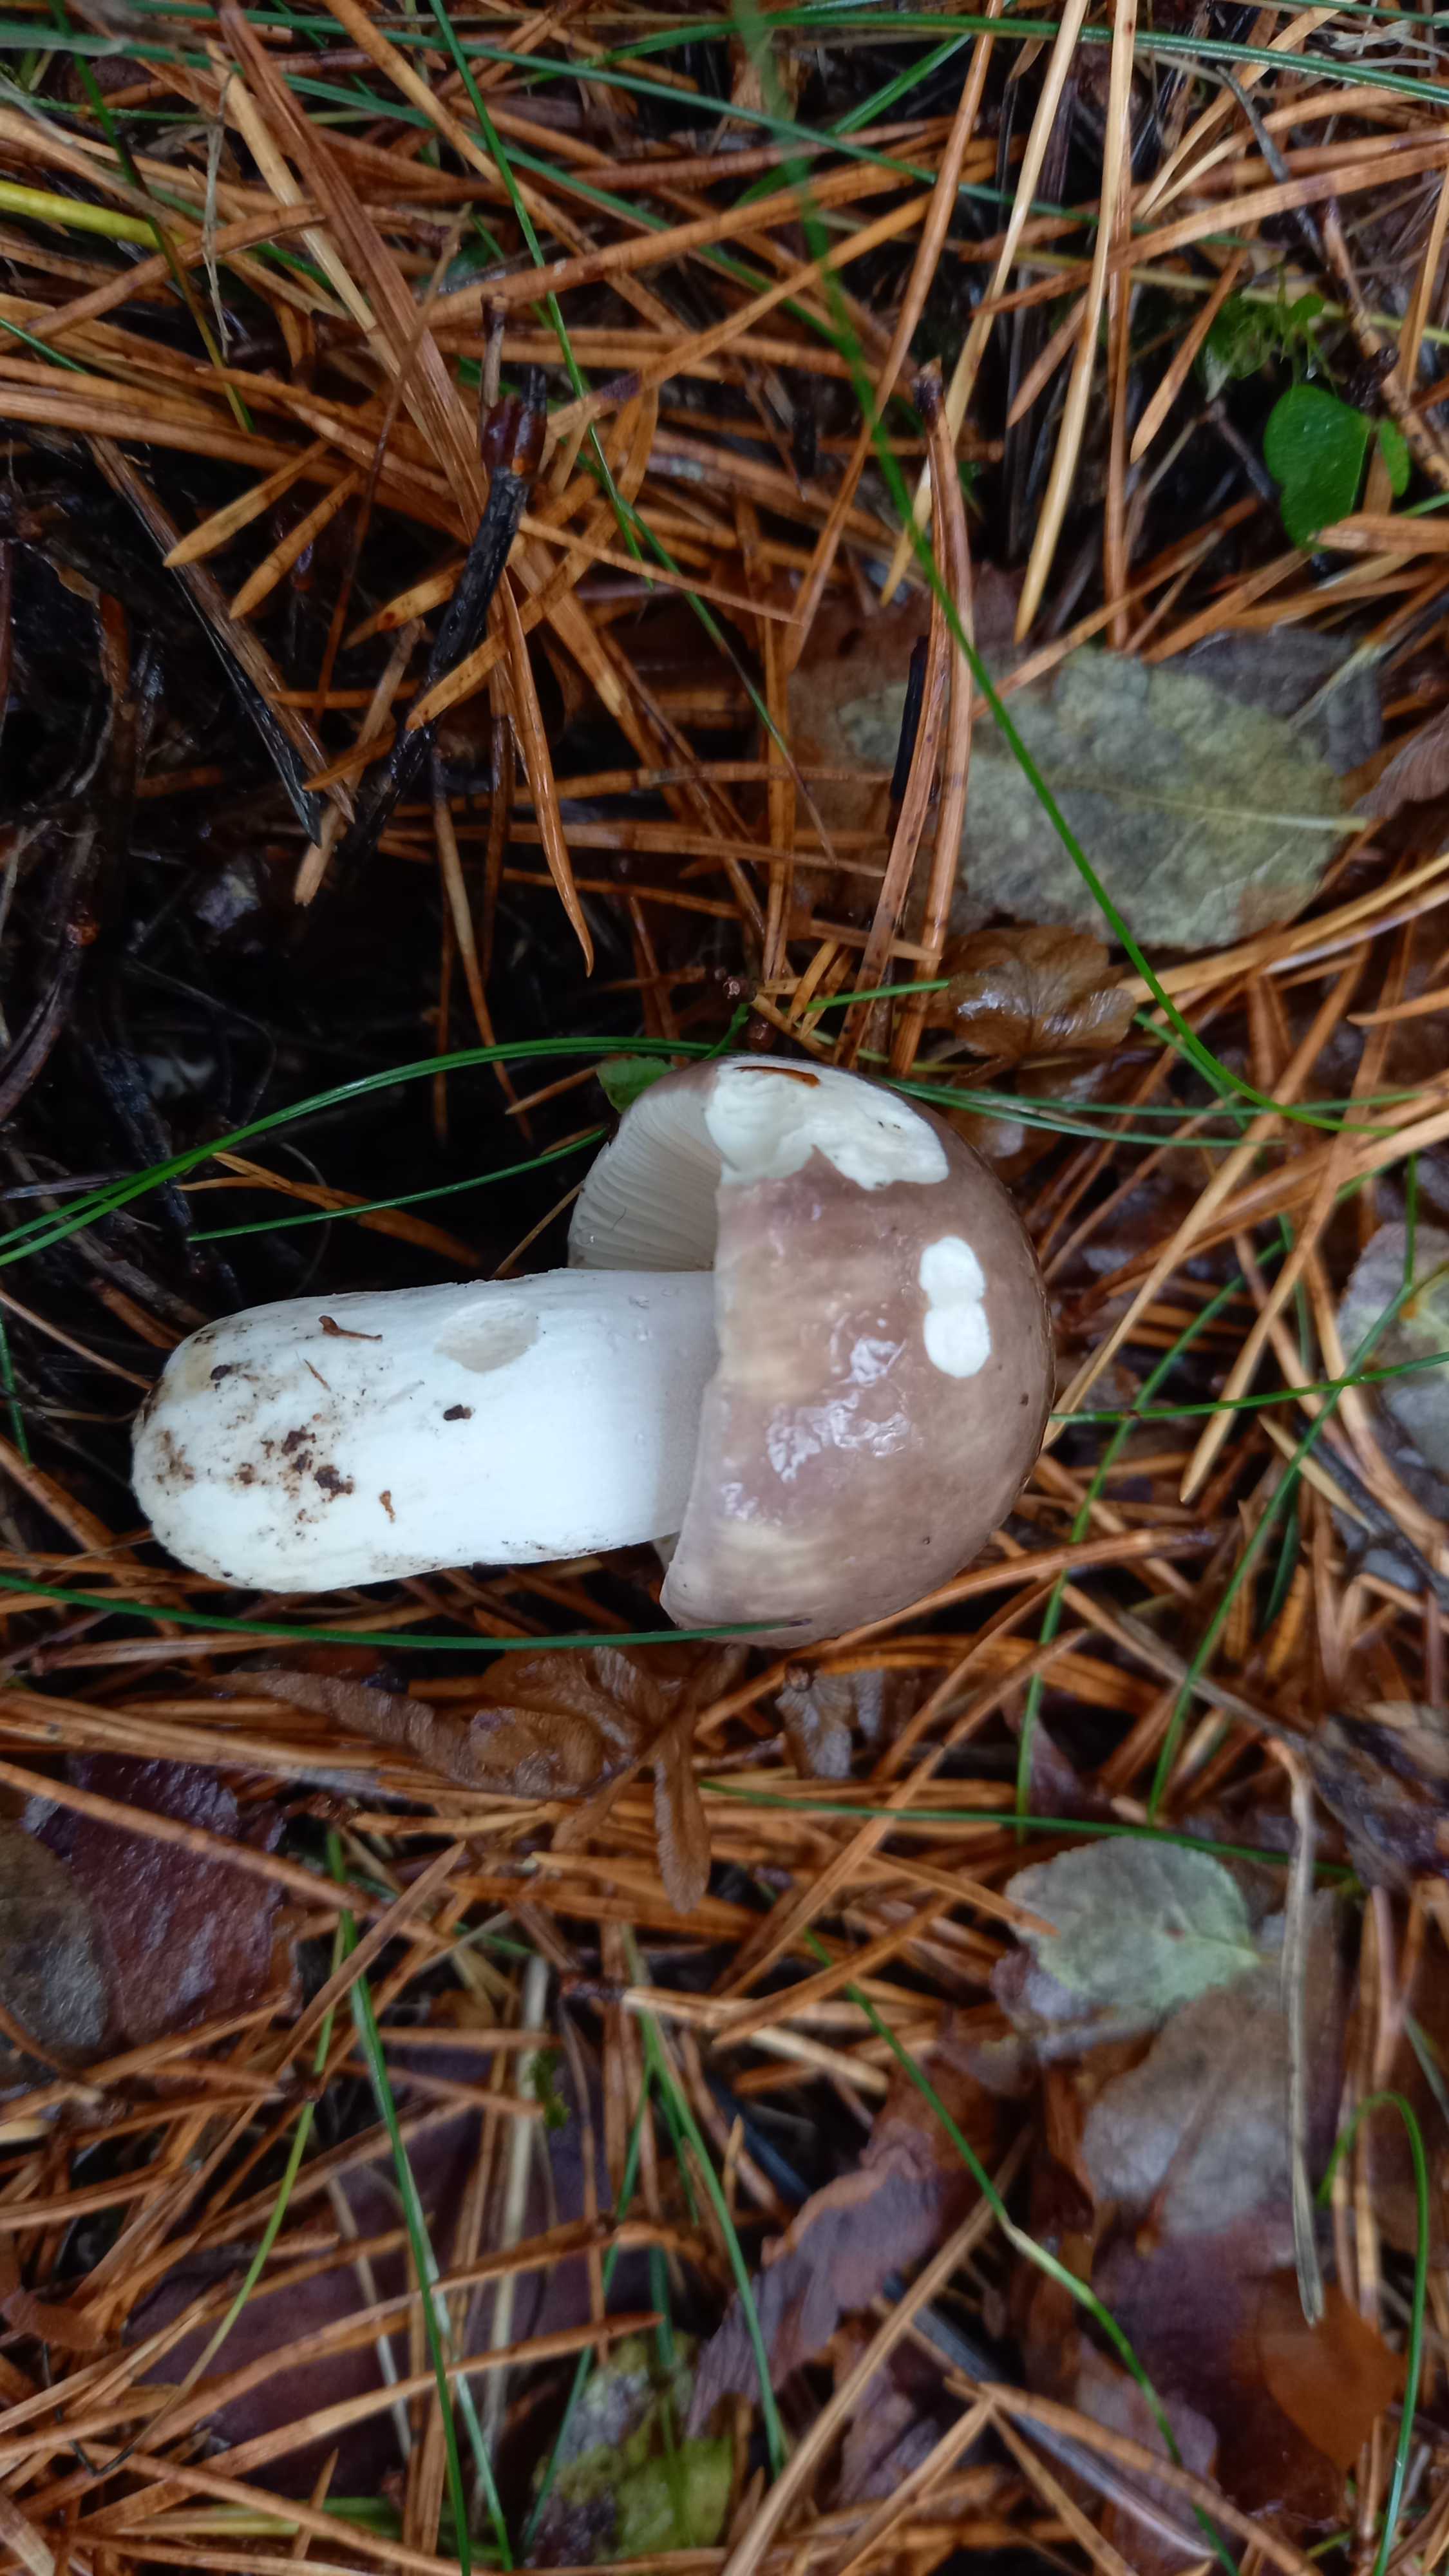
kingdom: Fungi
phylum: Basidiomycota
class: Agaricomycetes
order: Russulales
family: Russulaceae
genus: Russula
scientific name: Russula cyanoxantha
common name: broget skørhat
